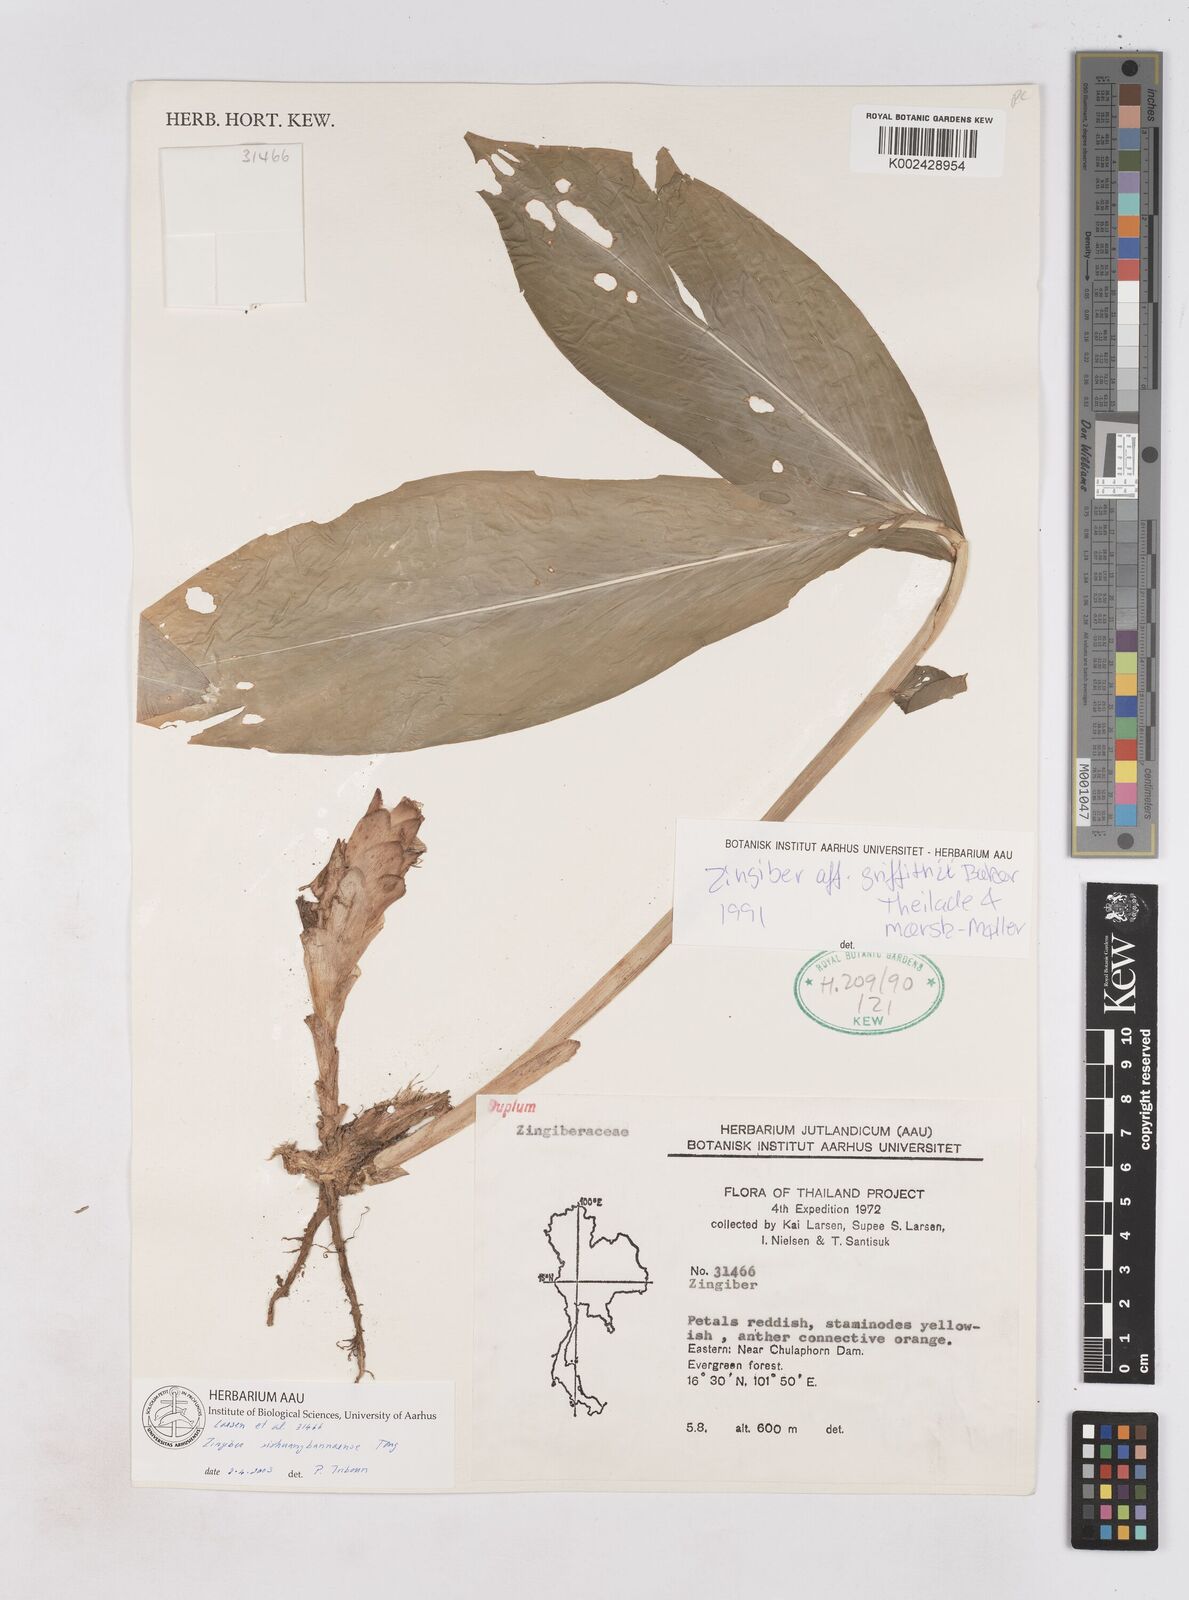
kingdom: Plantae
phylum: Tracheophyta
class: Liliopsida
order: Zingiberales
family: Zingiberaceae
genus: Zingiber
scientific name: Zingiber thorelii
